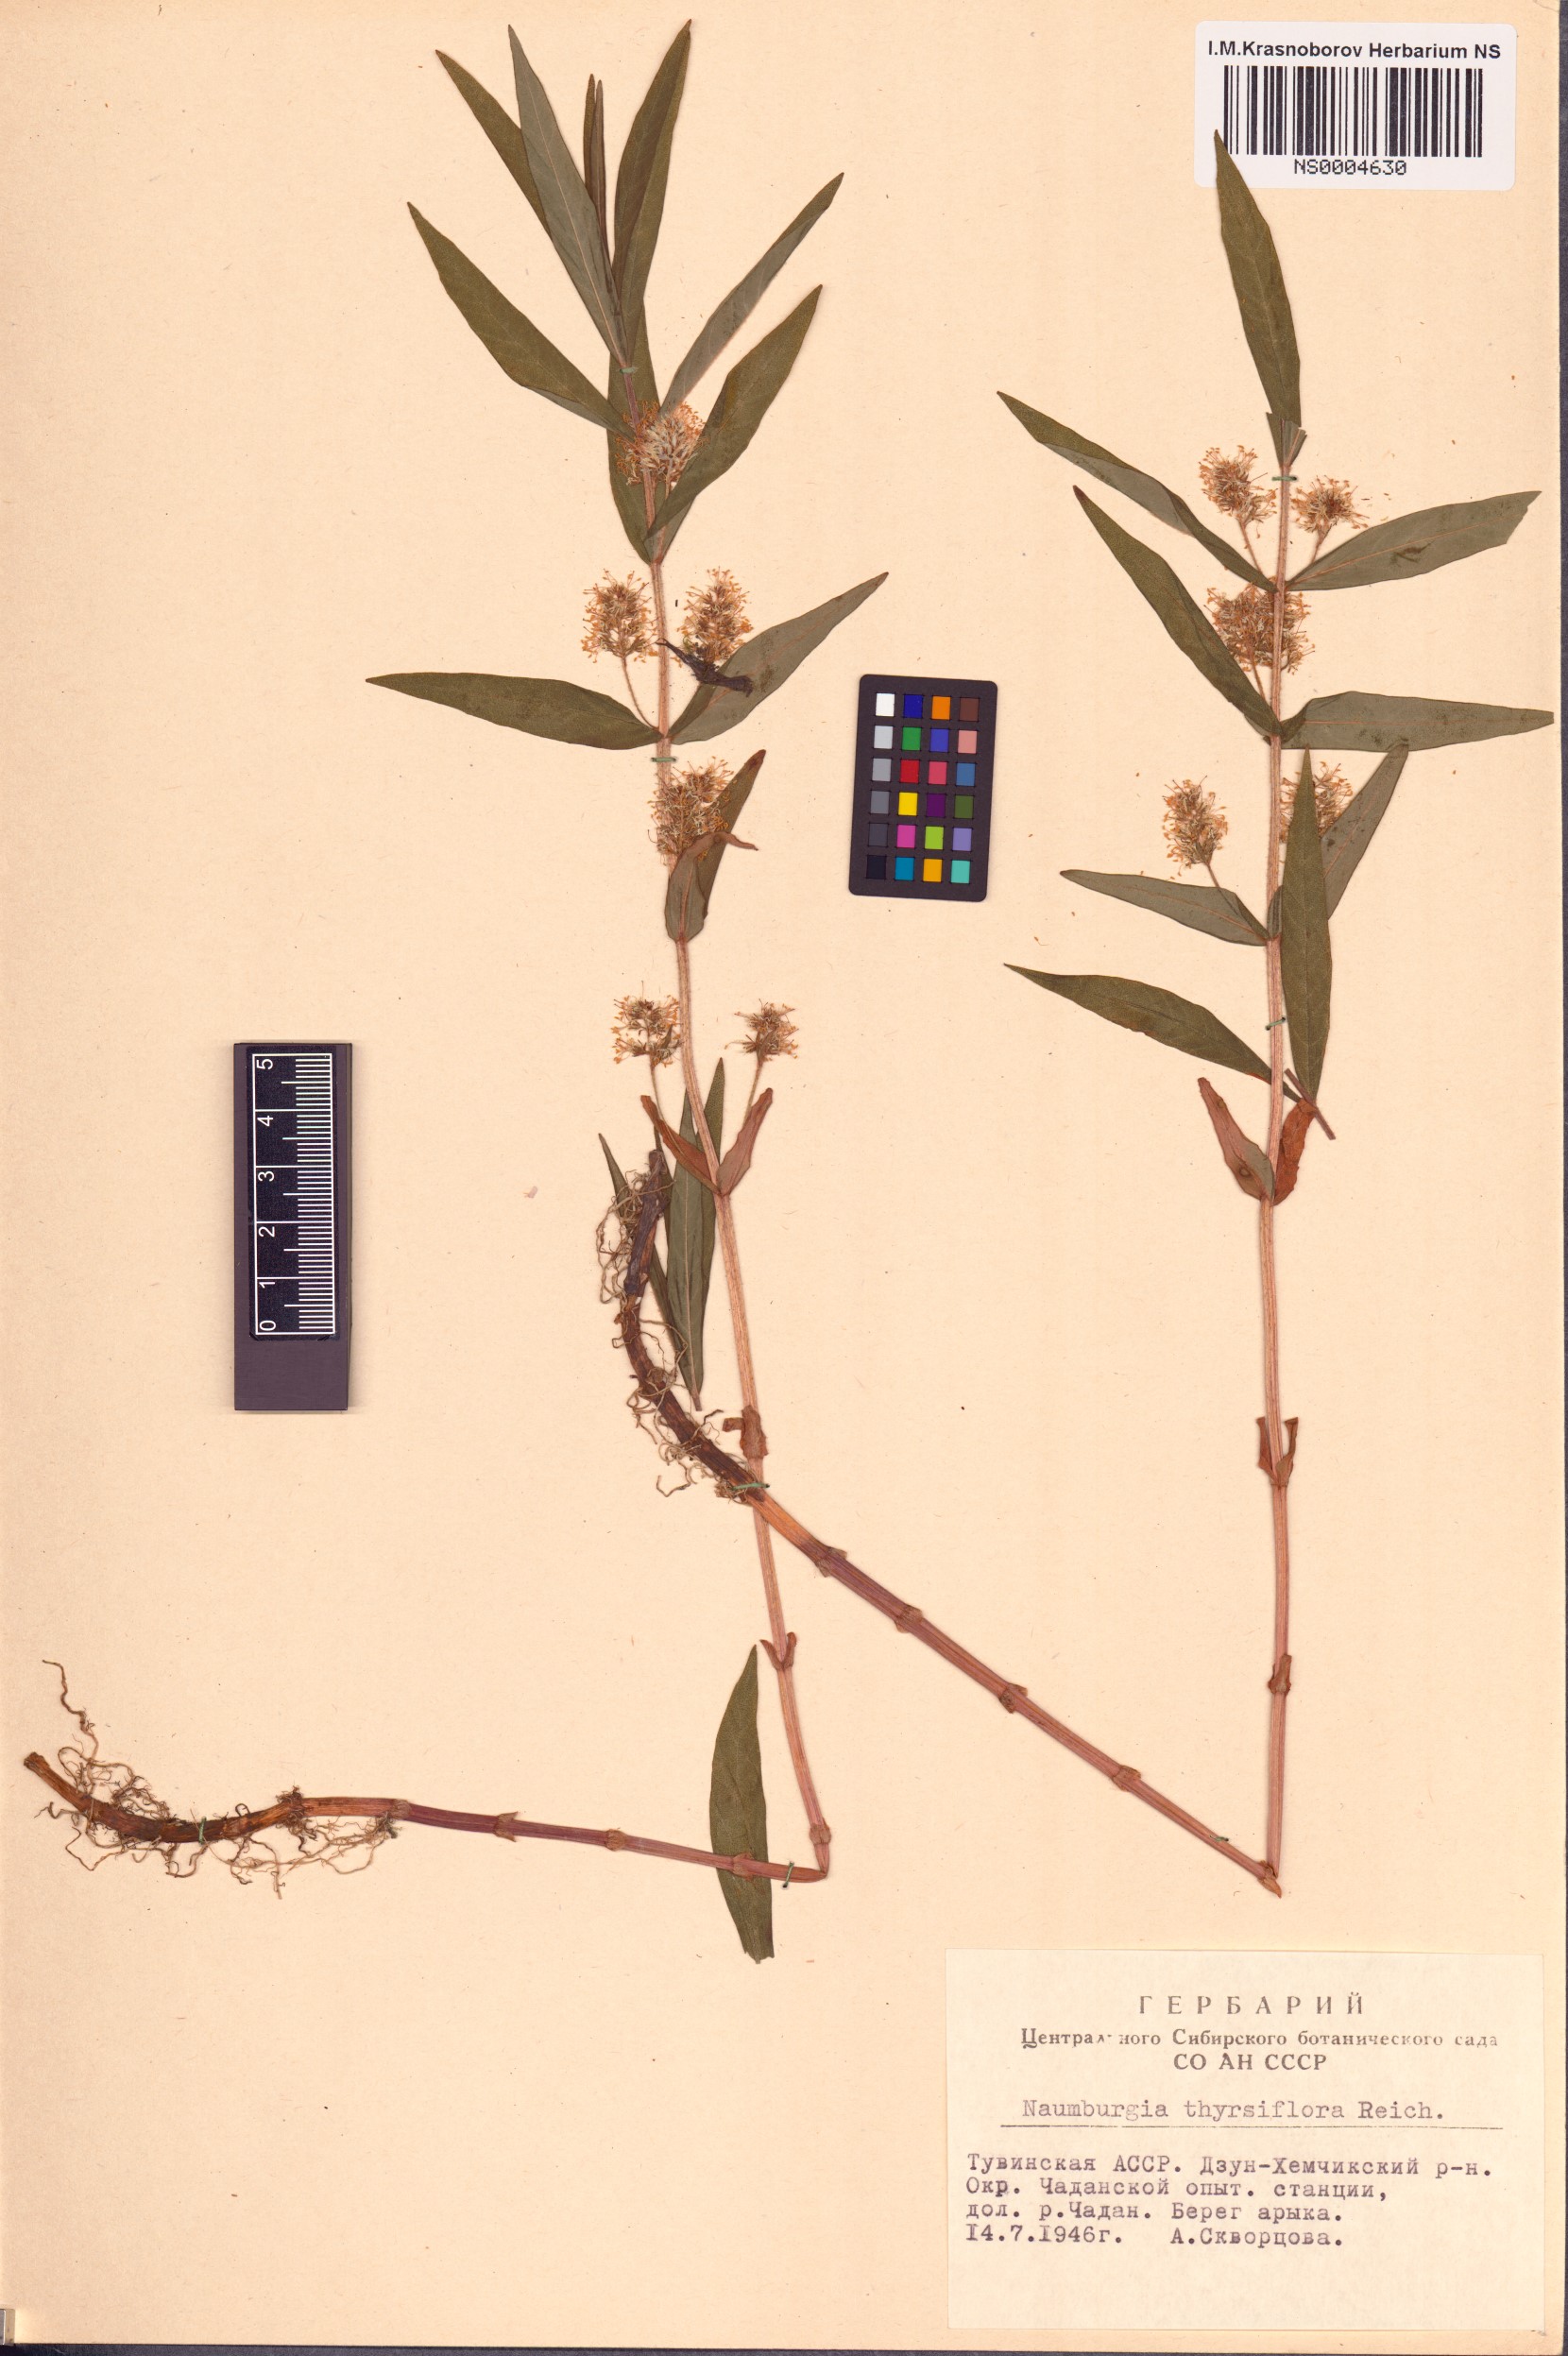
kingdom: Plantae
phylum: Tracheophyta
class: Magnoliopsida
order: Ericales
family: Primulaceae
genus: Lysimachia
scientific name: Lysimachia thyrsiflora
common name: Tufted loosestrife
